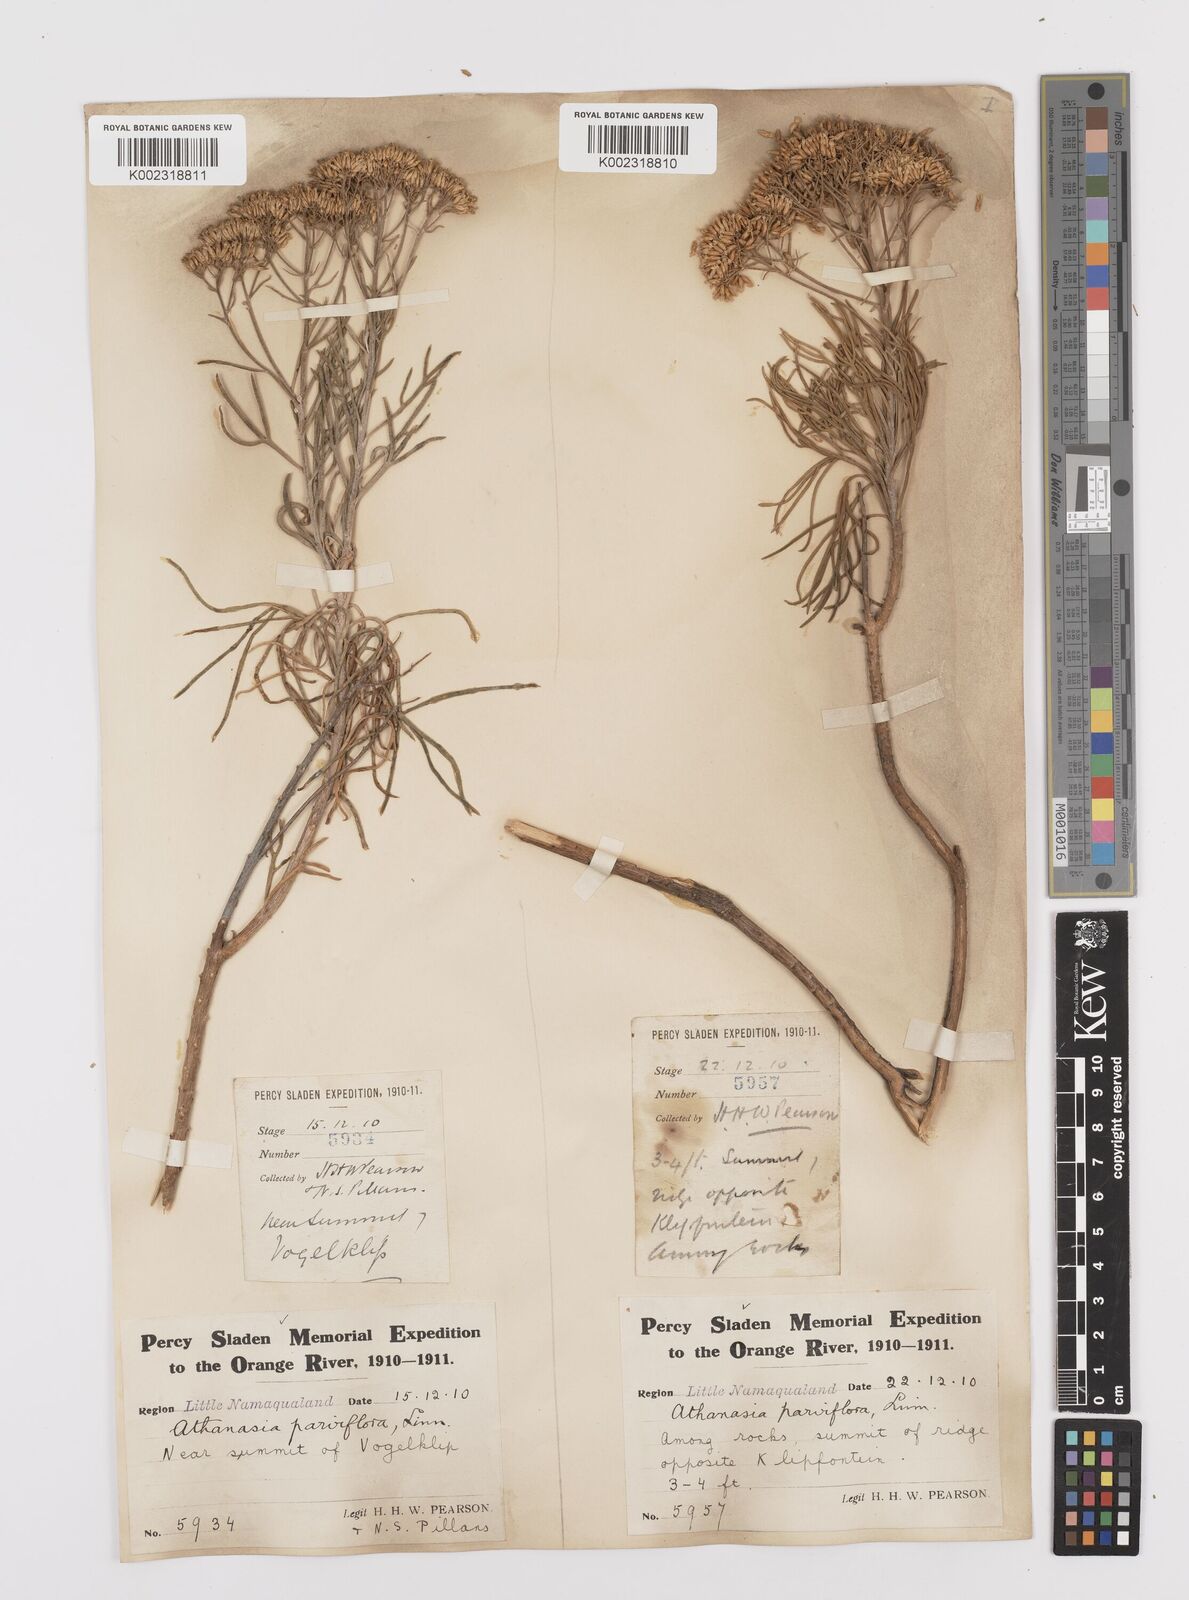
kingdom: Plantae
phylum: Tracheophyta
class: Magnoliopsida
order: Asterales
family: Asteraceae
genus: Hymenolepis
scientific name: Hymenolepis crithmifolia
